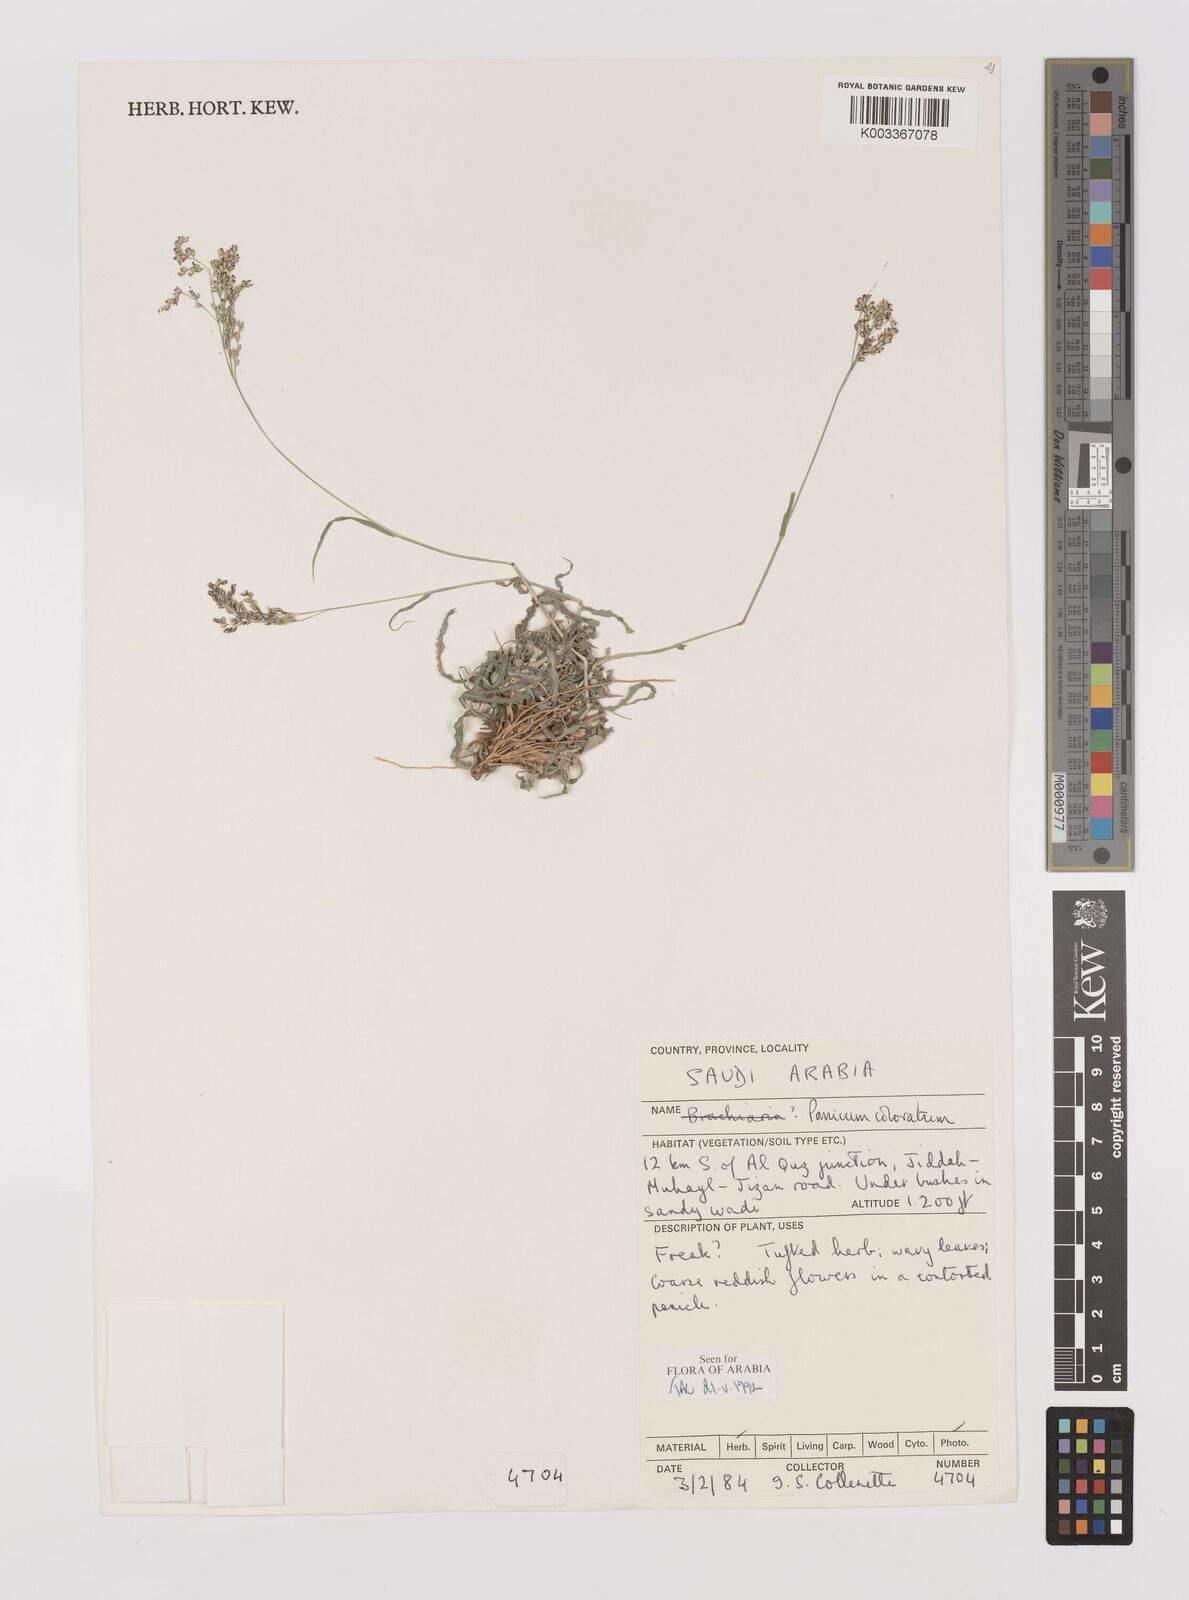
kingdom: Plantae
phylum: Tracheophyta
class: Liliopsida
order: Poales
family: Poaceae
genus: Panicum
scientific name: Panicum coloratum
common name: Kleingrass
